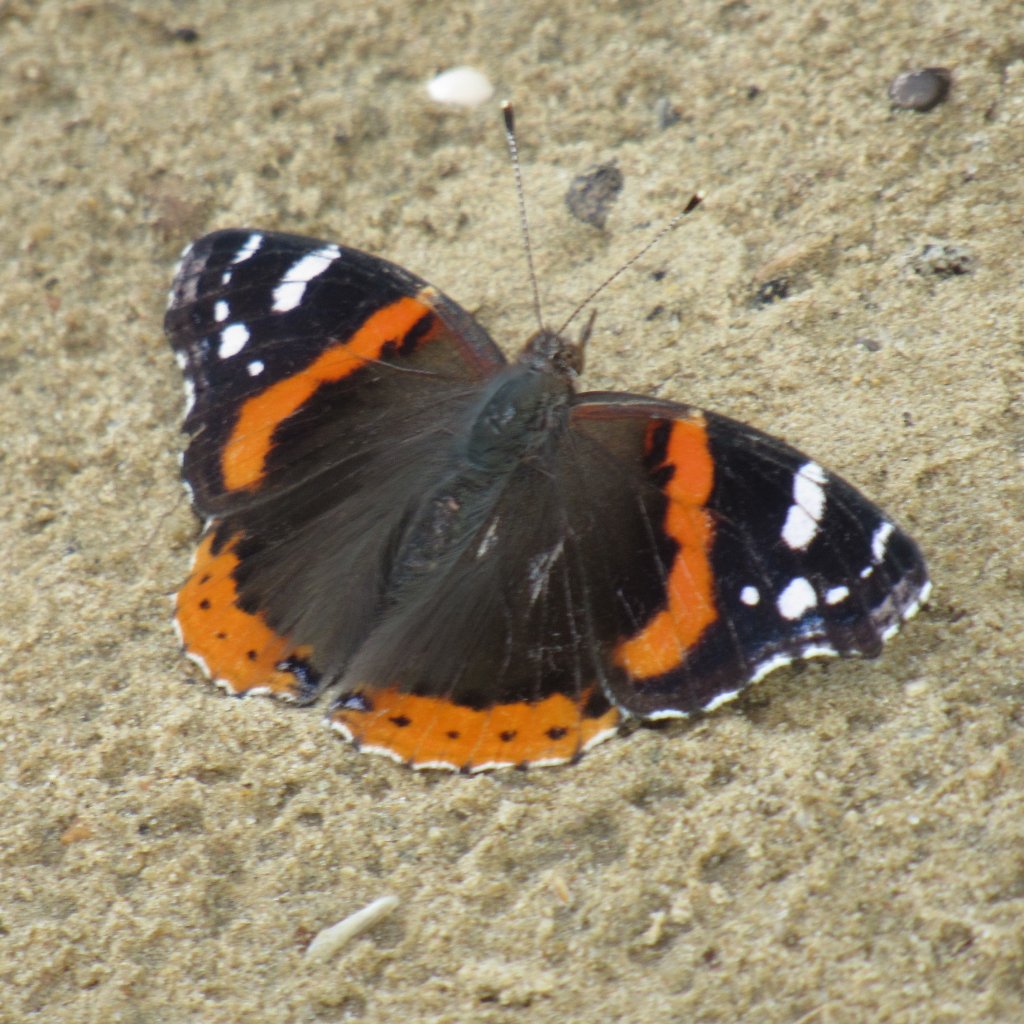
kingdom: Animalia
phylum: Arthropoda
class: Insecta
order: Lepidoptera
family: Nymphalidae
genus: Vanessa
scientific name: Vanessa atalanta
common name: Red Admiral
